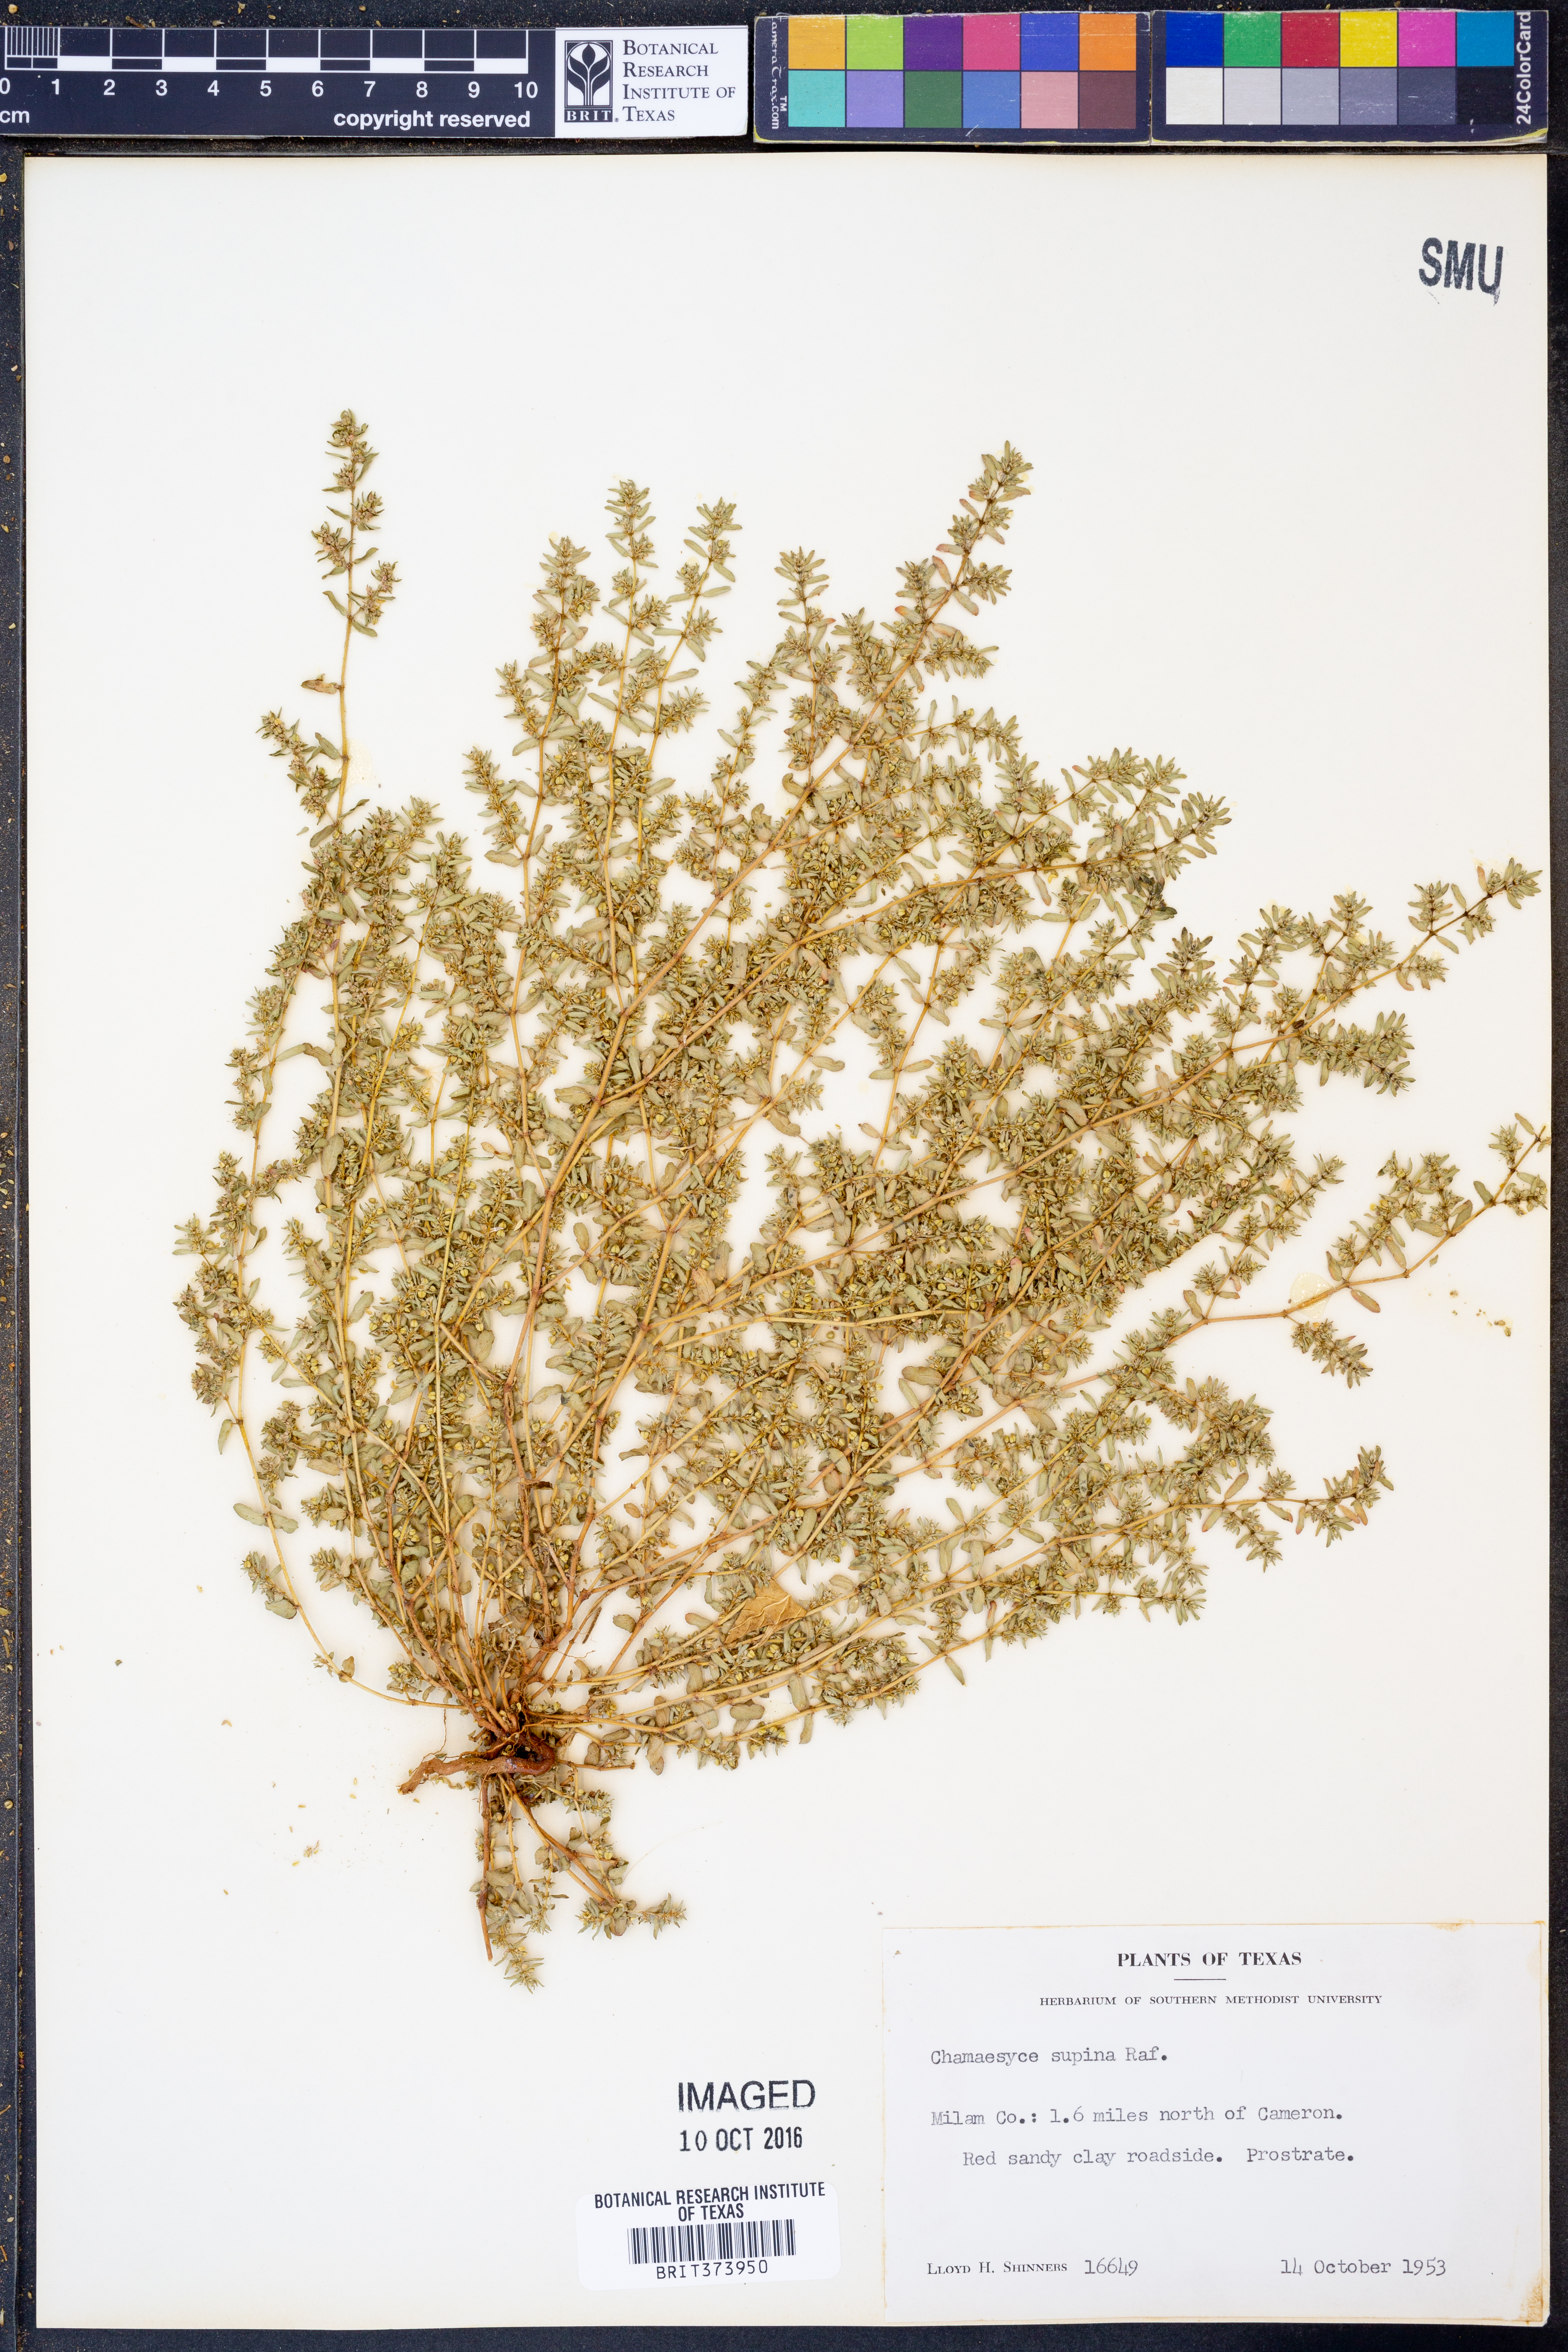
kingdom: Plantae
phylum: Tracheophyta
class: Magnoliopsida
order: Malpighiales
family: Euphorbiaceae
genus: Euphorbia
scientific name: Euphorbia nutans
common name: Eyebane
